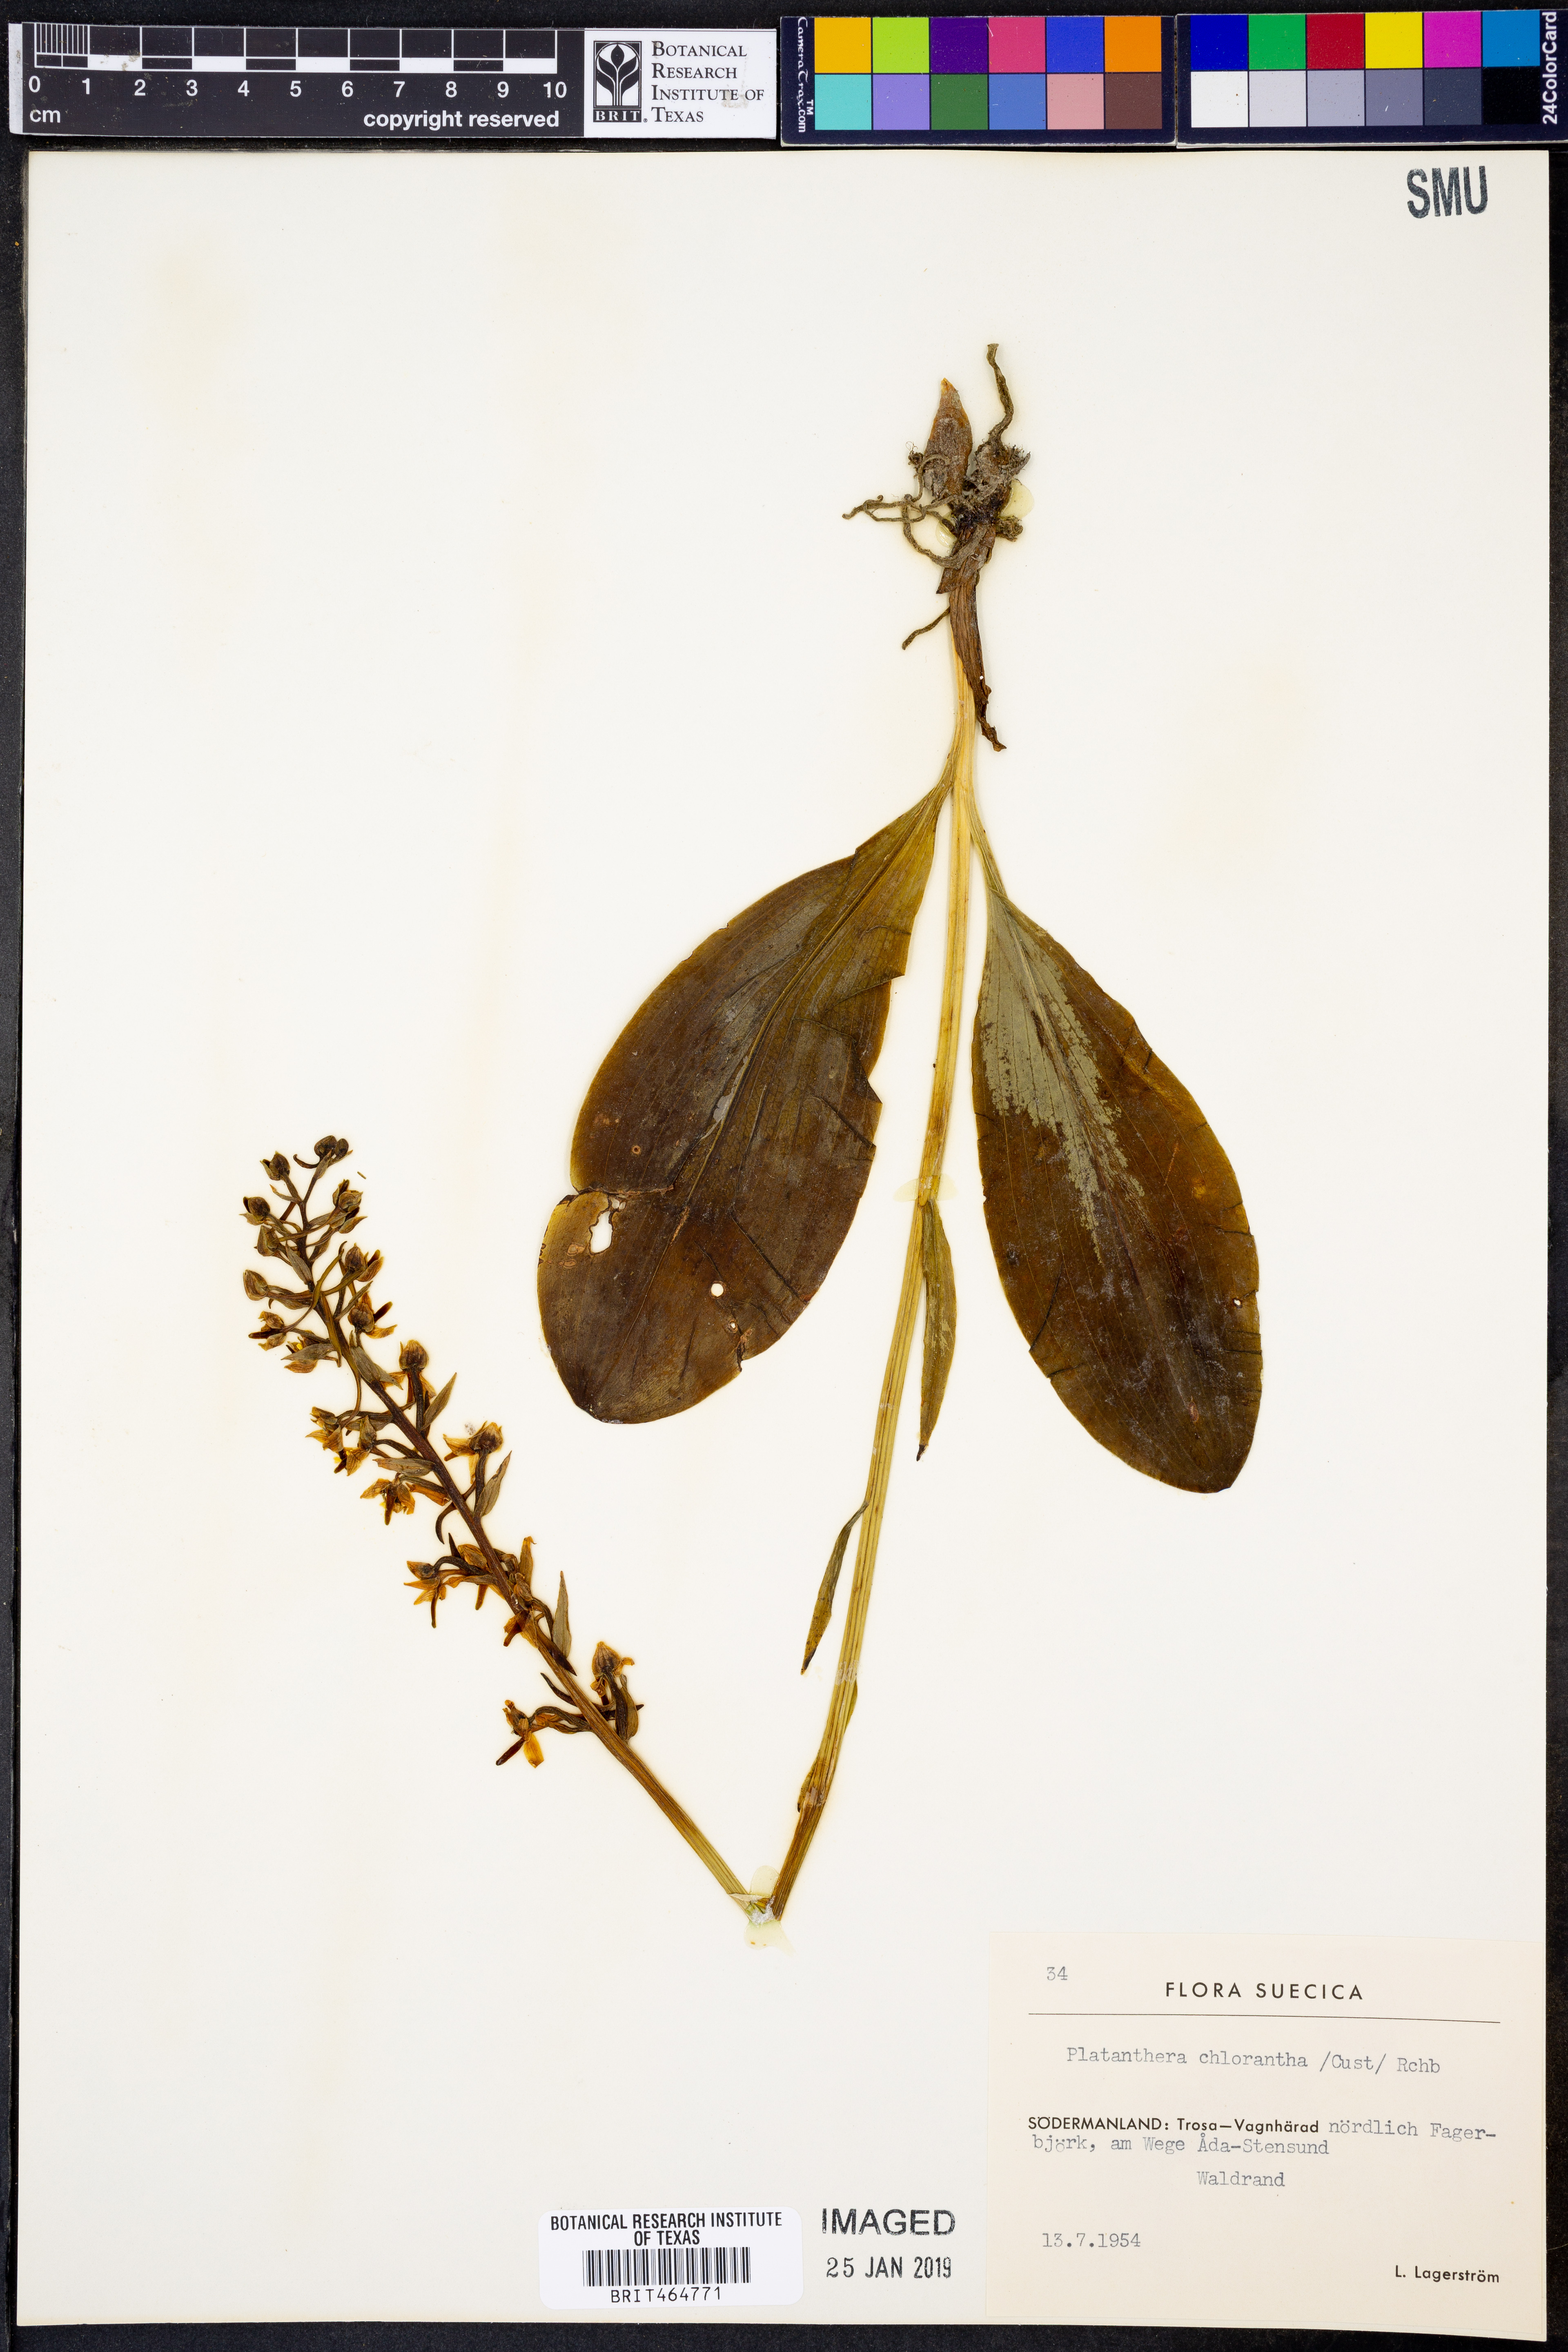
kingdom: Plantae
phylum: Tracheophyta
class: Liliopsida
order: Asparagales
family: Orchidaceae
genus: Platanthera
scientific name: Platanthera chlorantha
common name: Greater butterfly-orchid
